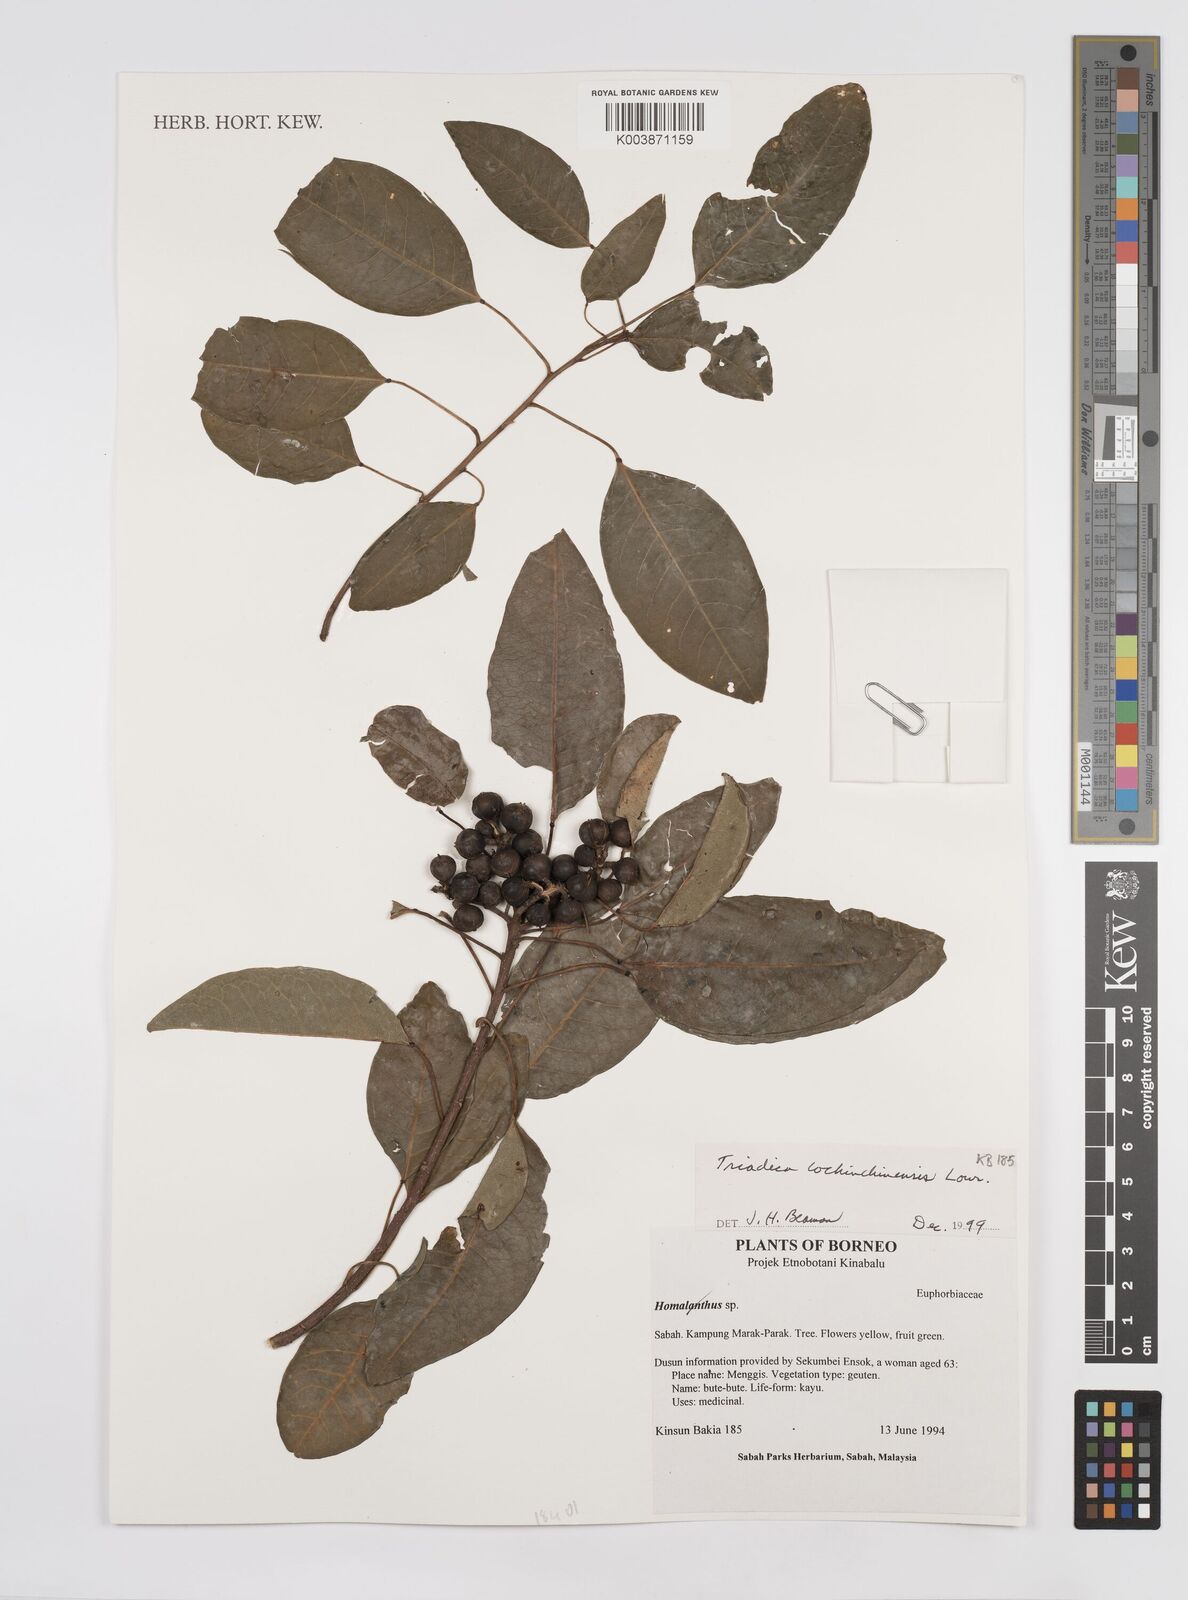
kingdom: Plantae
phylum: Tracheophyta
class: Magnoliopsida
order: Malpighiales
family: Euphorbiaceae
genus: Triadica
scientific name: Triadica cochinchinensis
